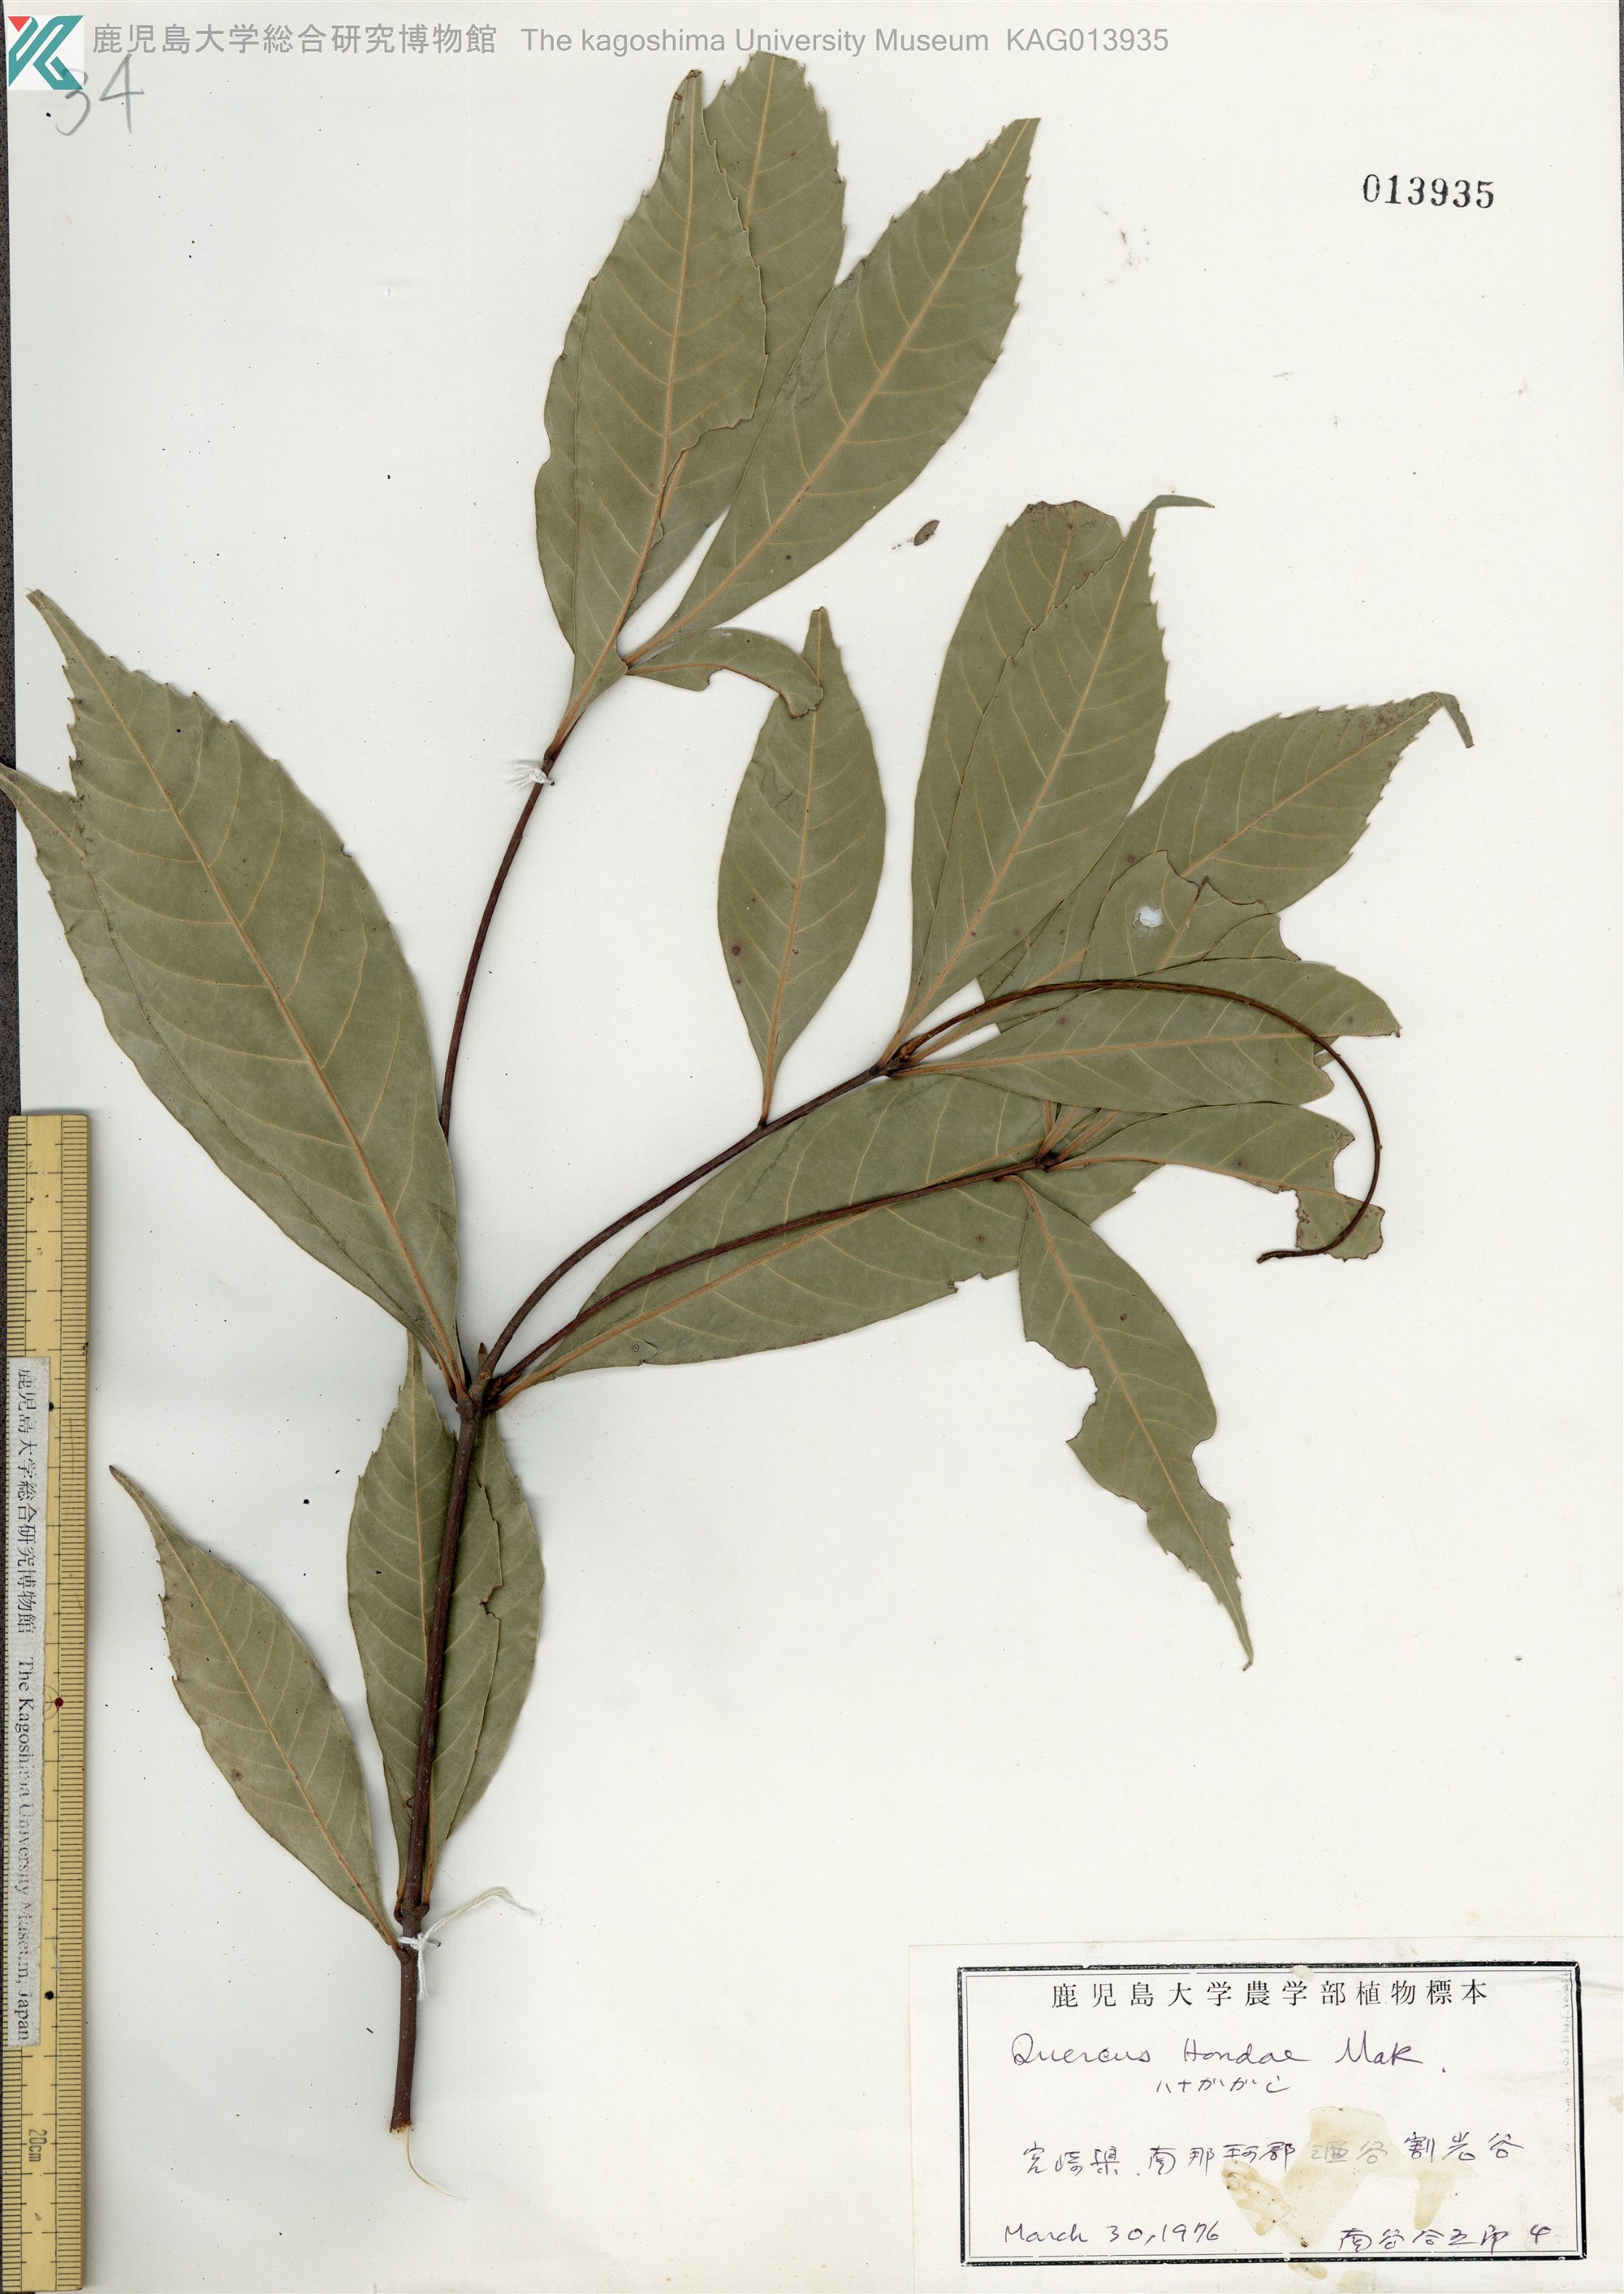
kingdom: Plantae
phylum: Tracheophyta
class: Magnoliopsida
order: Fagales
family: Fagaceae
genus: Quercus
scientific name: Quercus hondae
